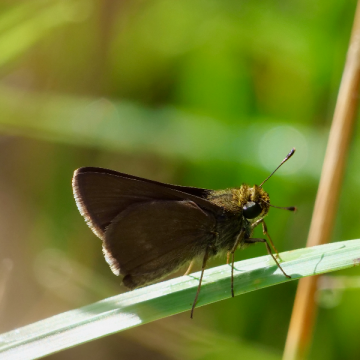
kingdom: Animalia
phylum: Arthropoda
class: Insecta
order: Lepidoptera
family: Hesperiidae
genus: Euphyes
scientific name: Euphyes vestris
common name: Dun Skipper
